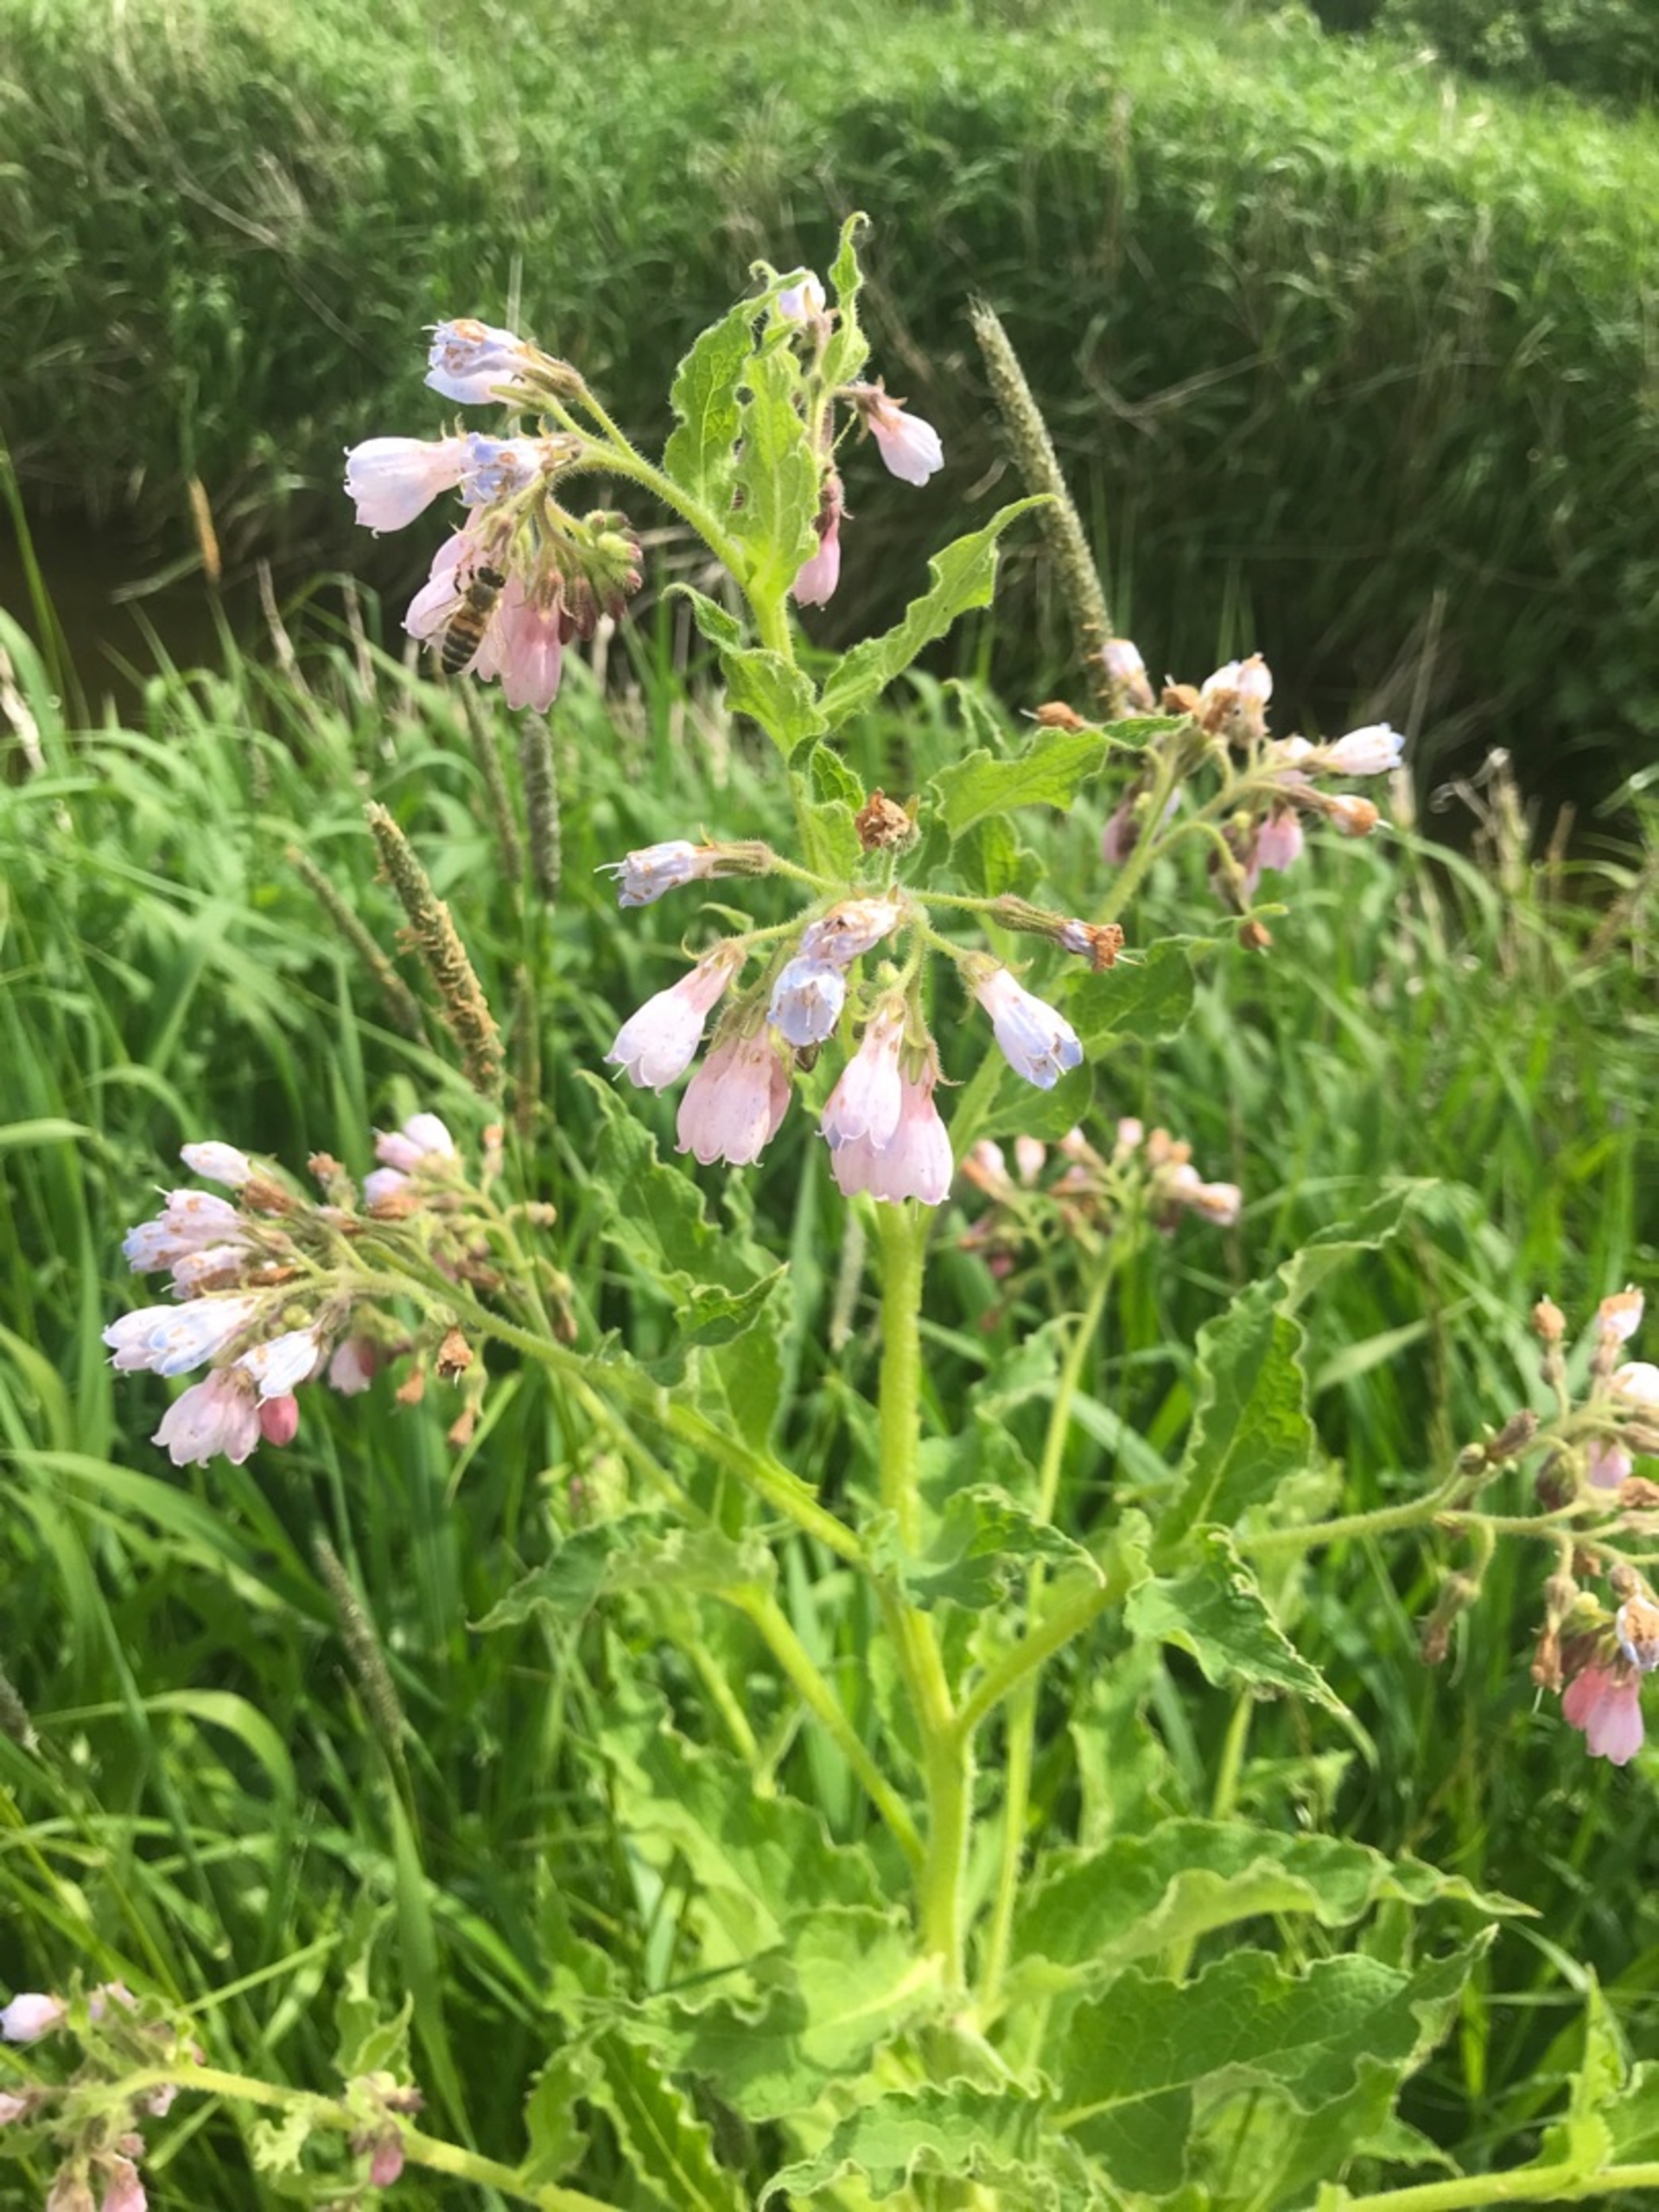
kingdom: Plantae
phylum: Tracheophyta
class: Magnoliopsida
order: Boraginales
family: Boraginaceae
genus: Symphytum
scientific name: Symphytum uplandicum
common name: Foder-kulsukker
